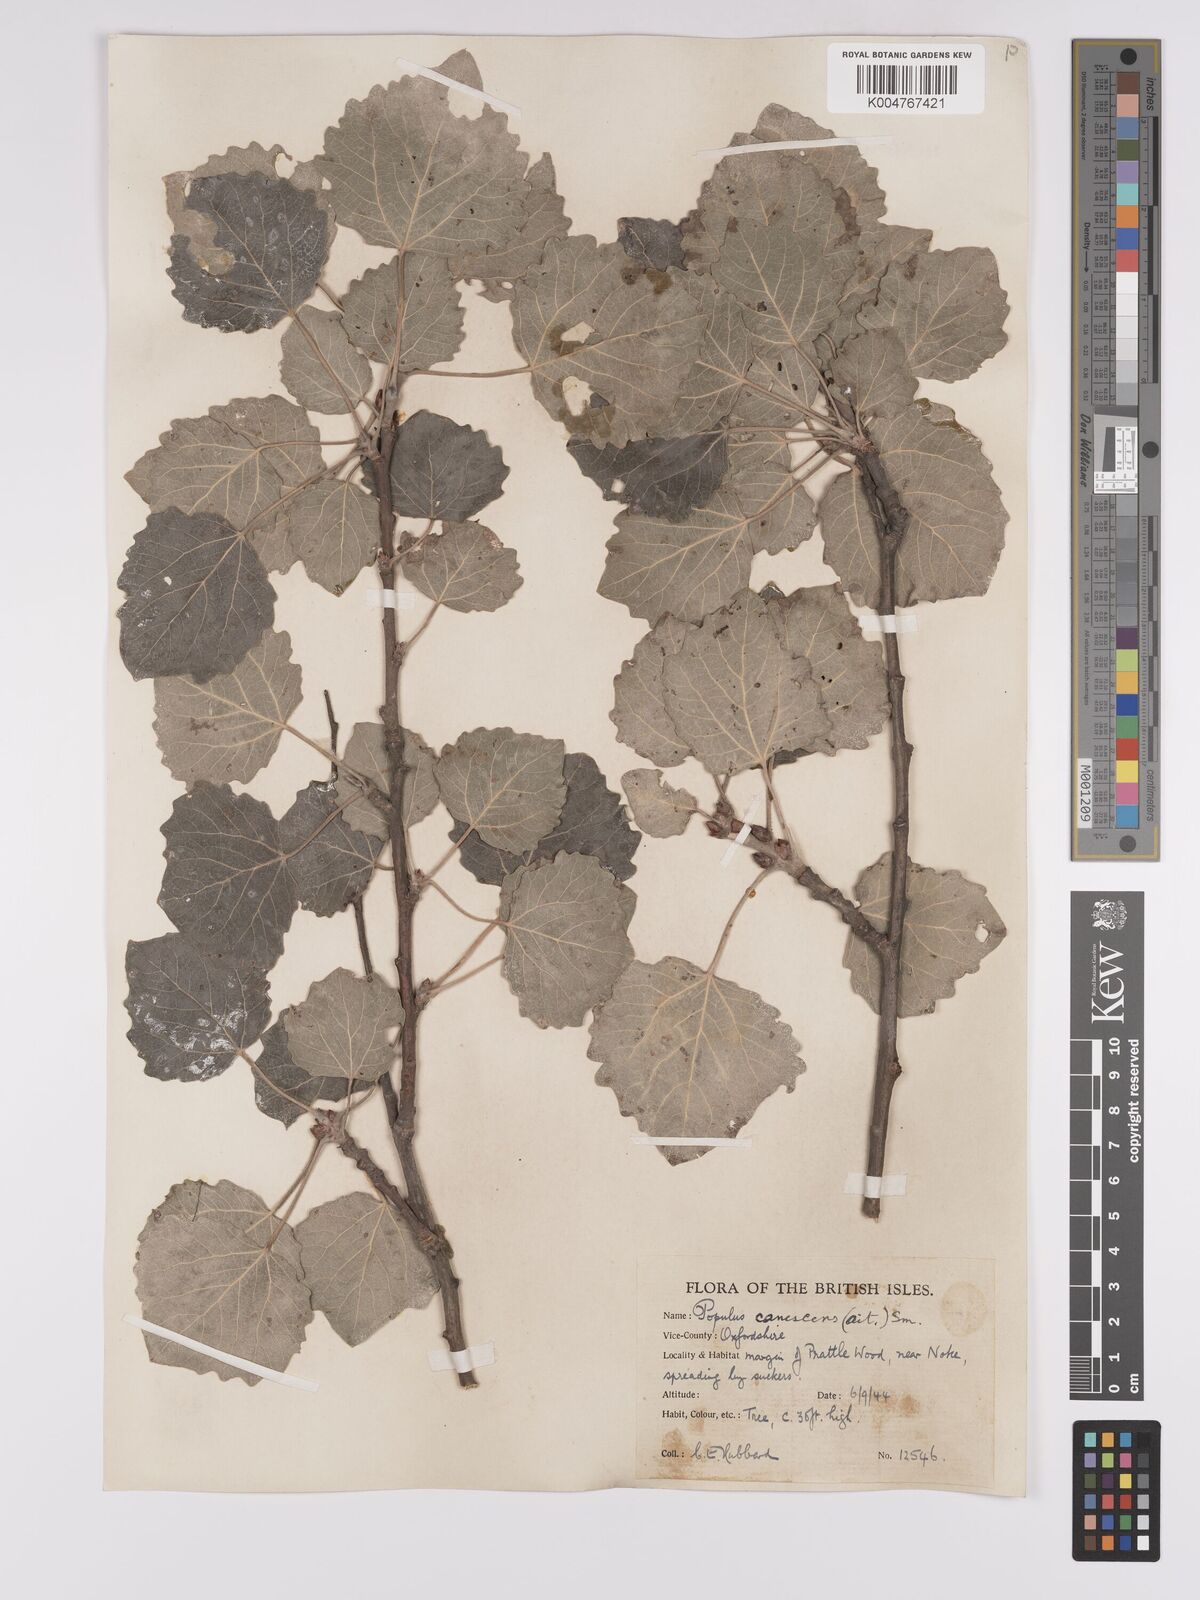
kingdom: Plantae
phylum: Tracheophyta
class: Magnoliopsida
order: Malpighiales
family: Salicaceae
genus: Populus
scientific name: Populus canescens
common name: Gray poplar
